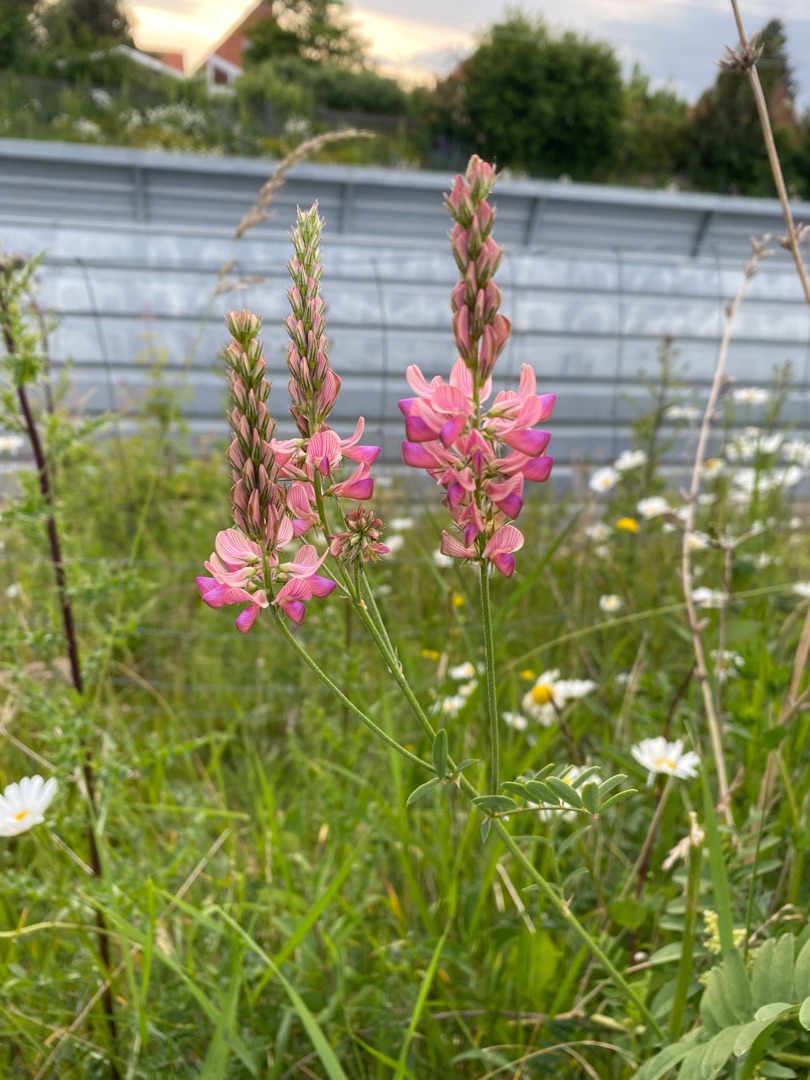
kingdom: Plantae
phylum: Tracheophyta
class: Magnoliopsida
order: Fabales
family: Fabaceae
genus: Onobrychis
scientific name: Onobrychis viciifolia
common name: Esparsette
